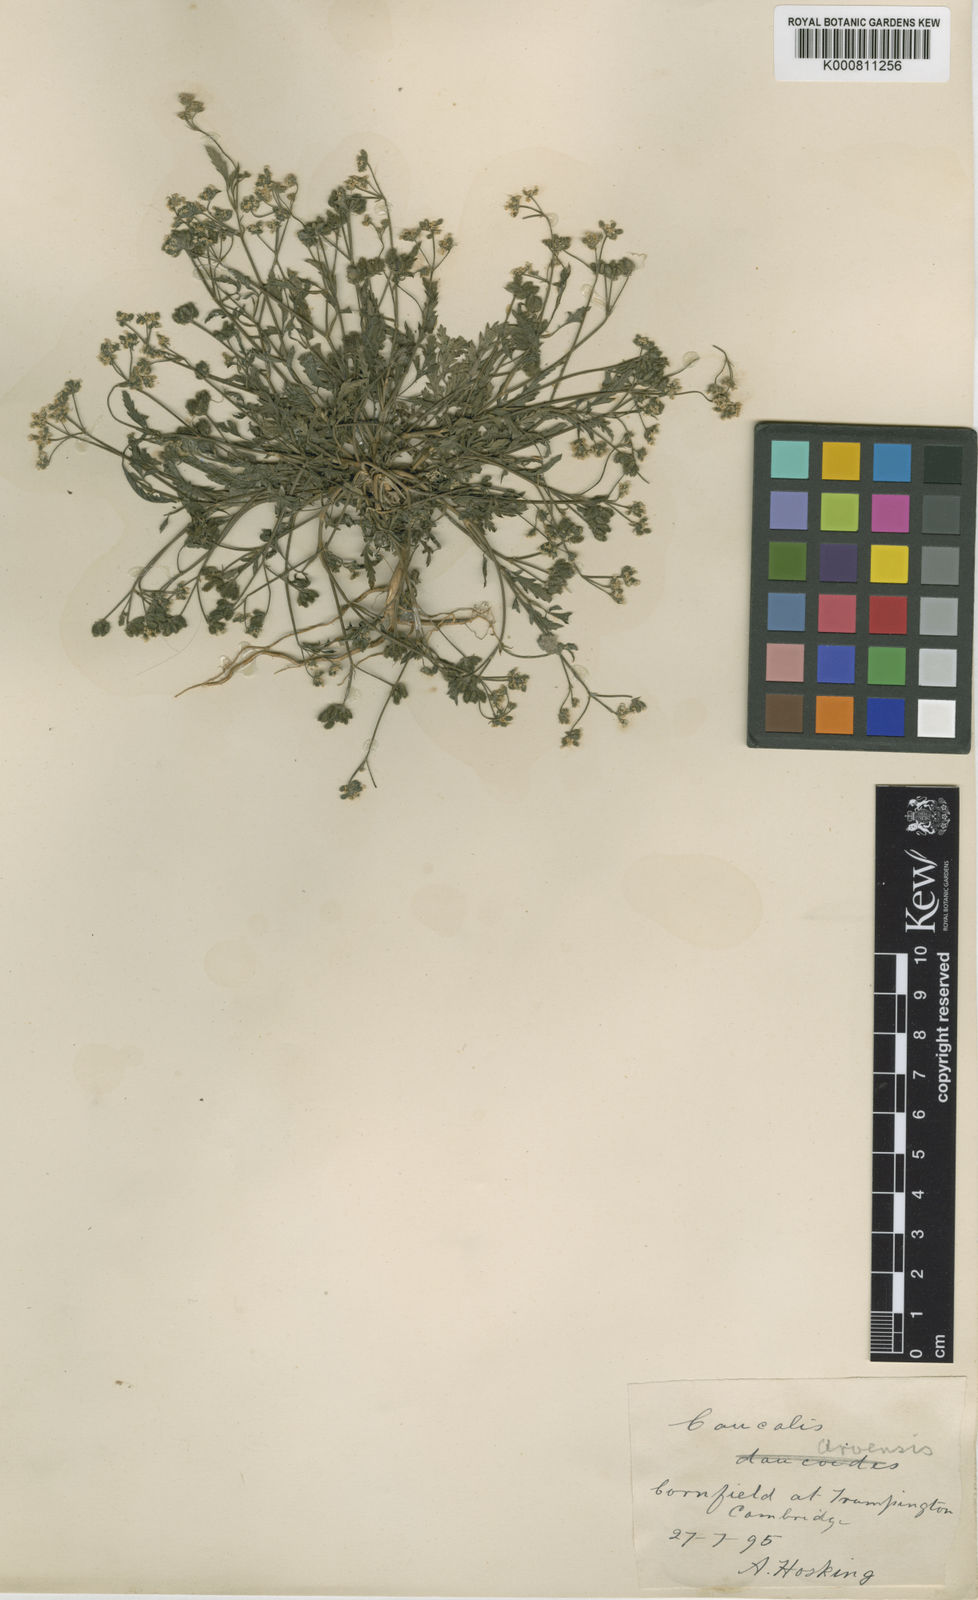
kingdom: Plantae
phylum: Tracheophyta
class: Magnoliopsida
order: Apiales
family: Apiaceae
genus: Torilis
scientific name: Torilis arvensis
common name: Spreading hedge-parsley
